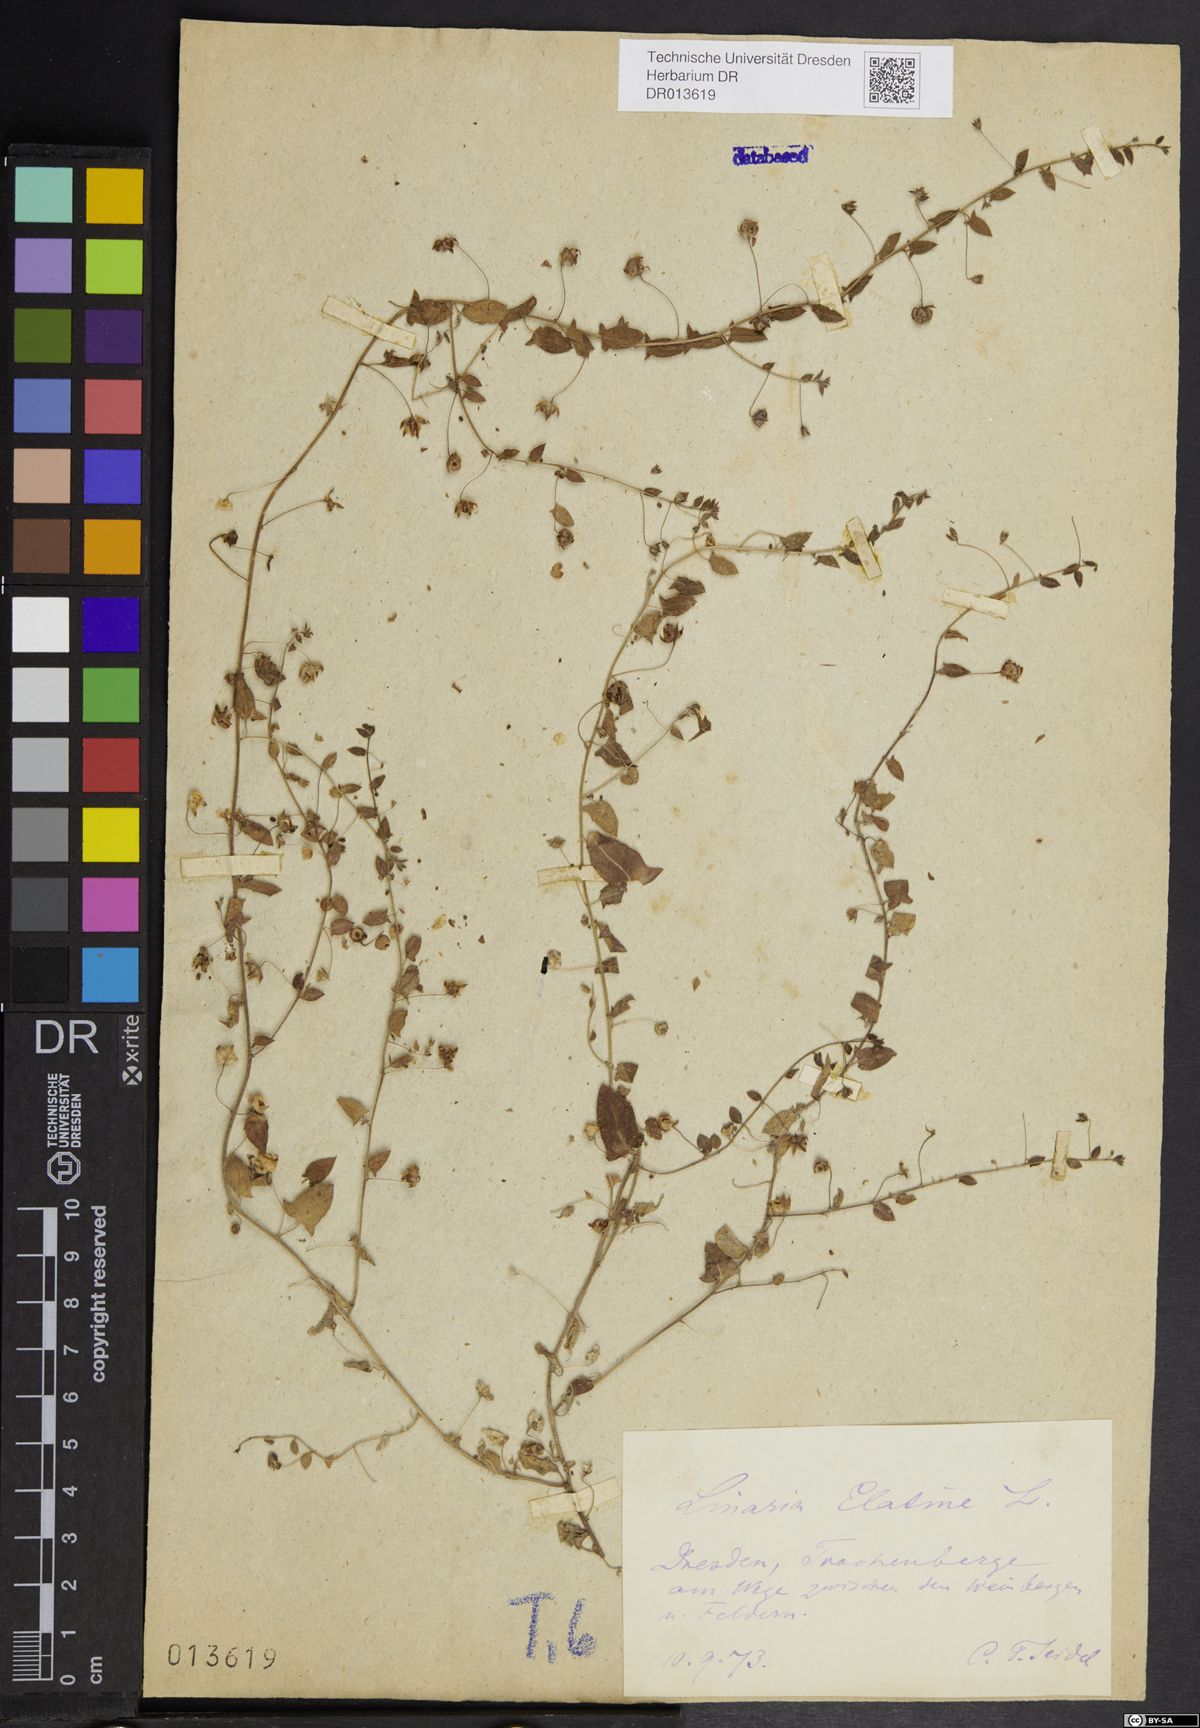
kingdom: Plantae
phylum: Tracheophyta
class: Magnoliopsida
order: Lamiales
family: Plantaginaceae
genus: Kickxia
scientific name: Kickxia elatine
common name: Sharp-leaved fluellen
